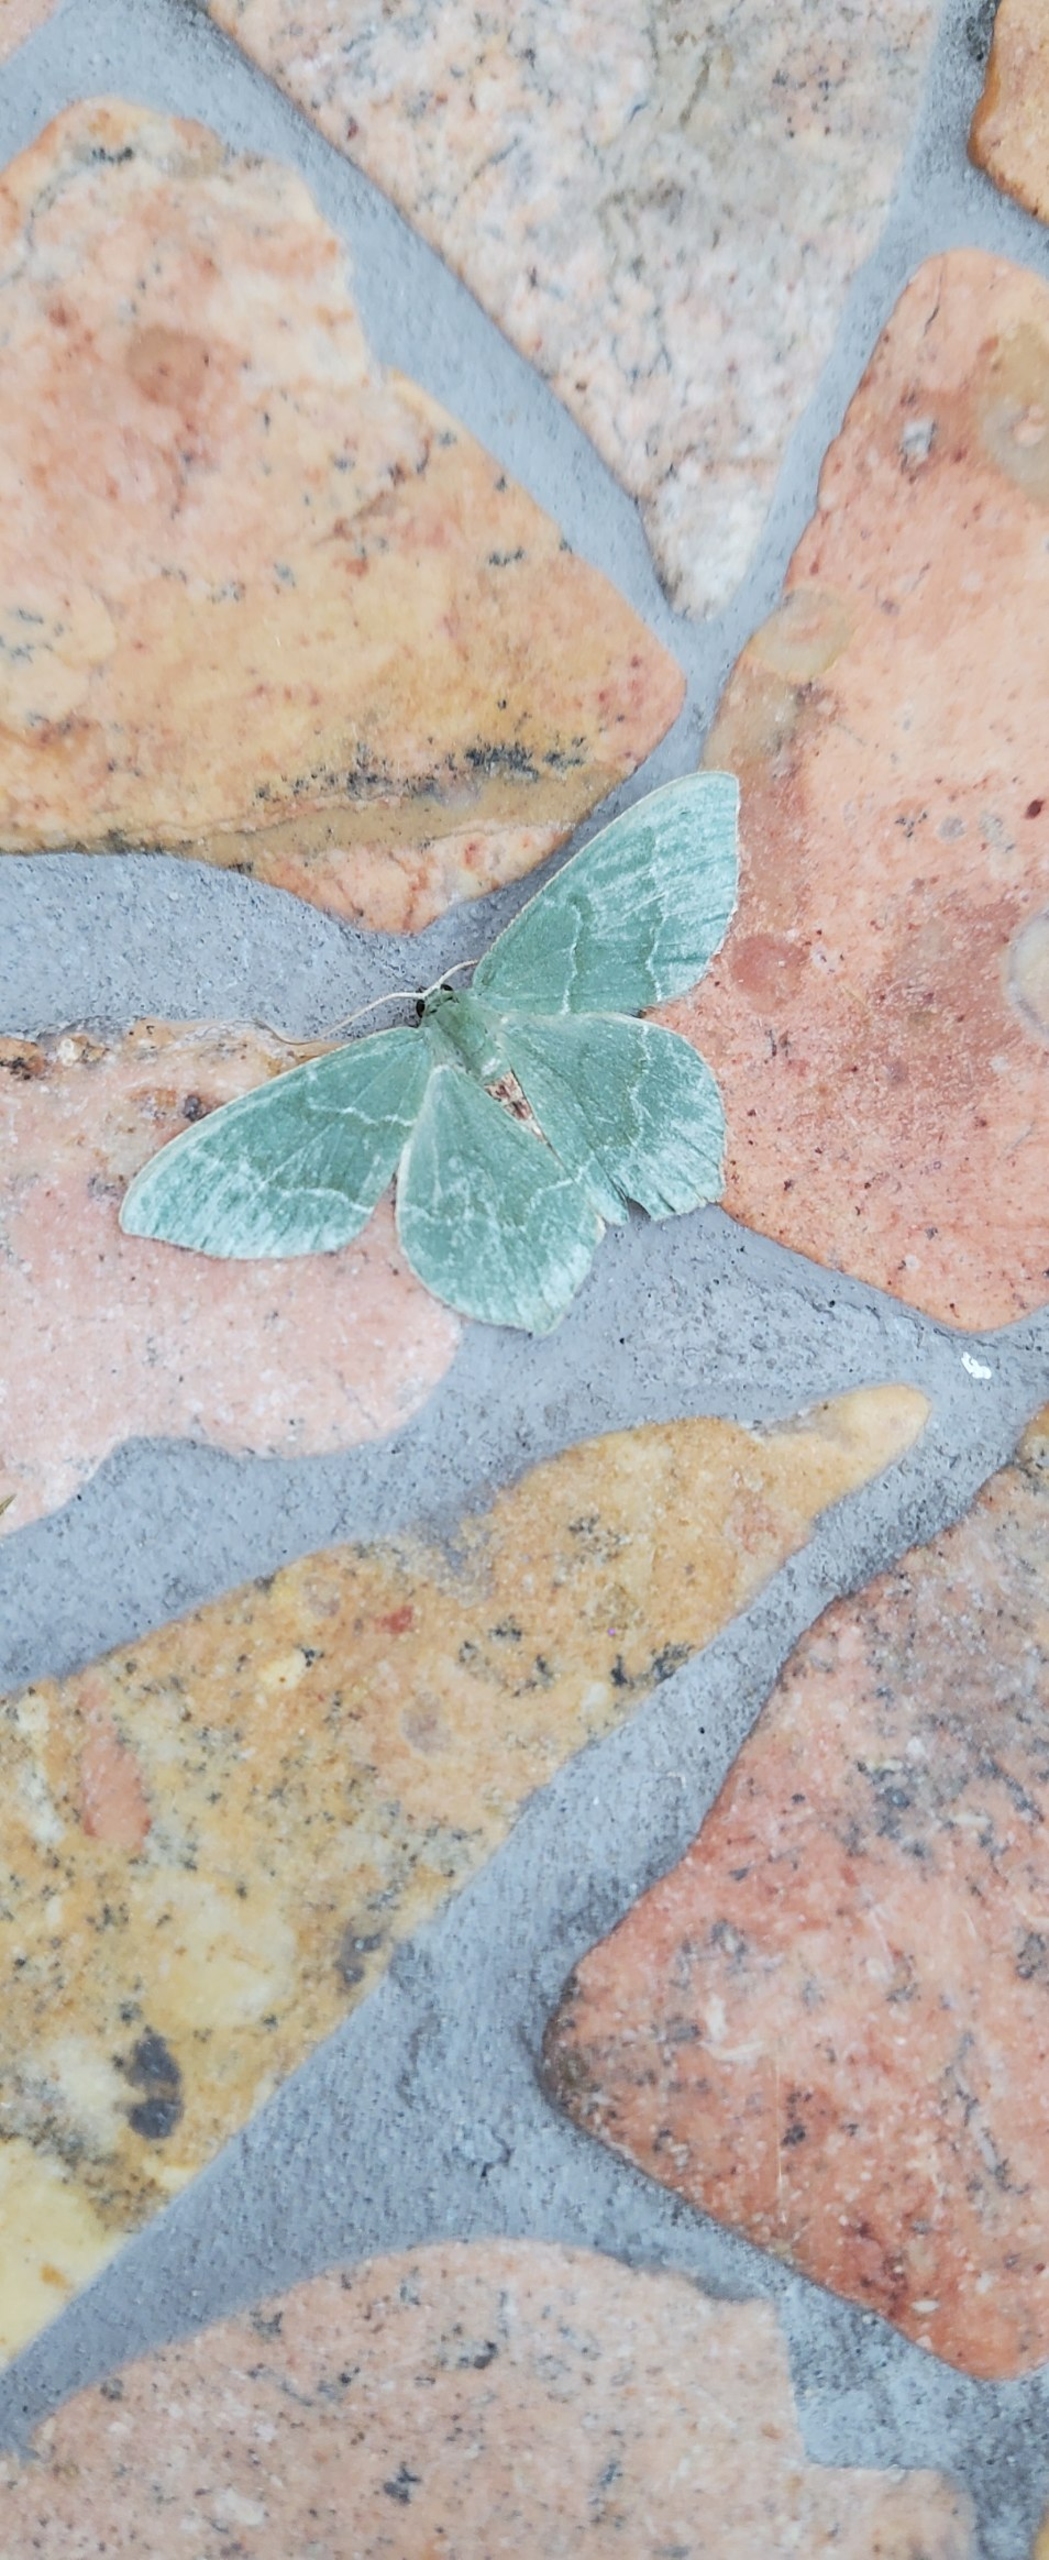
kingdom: Animalia
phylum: Arthropoda
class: Insecta
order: Lepidoptera
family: Geometridae
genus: Geometra
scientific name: Geometra papilionaria
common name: Grøn birkemåler
